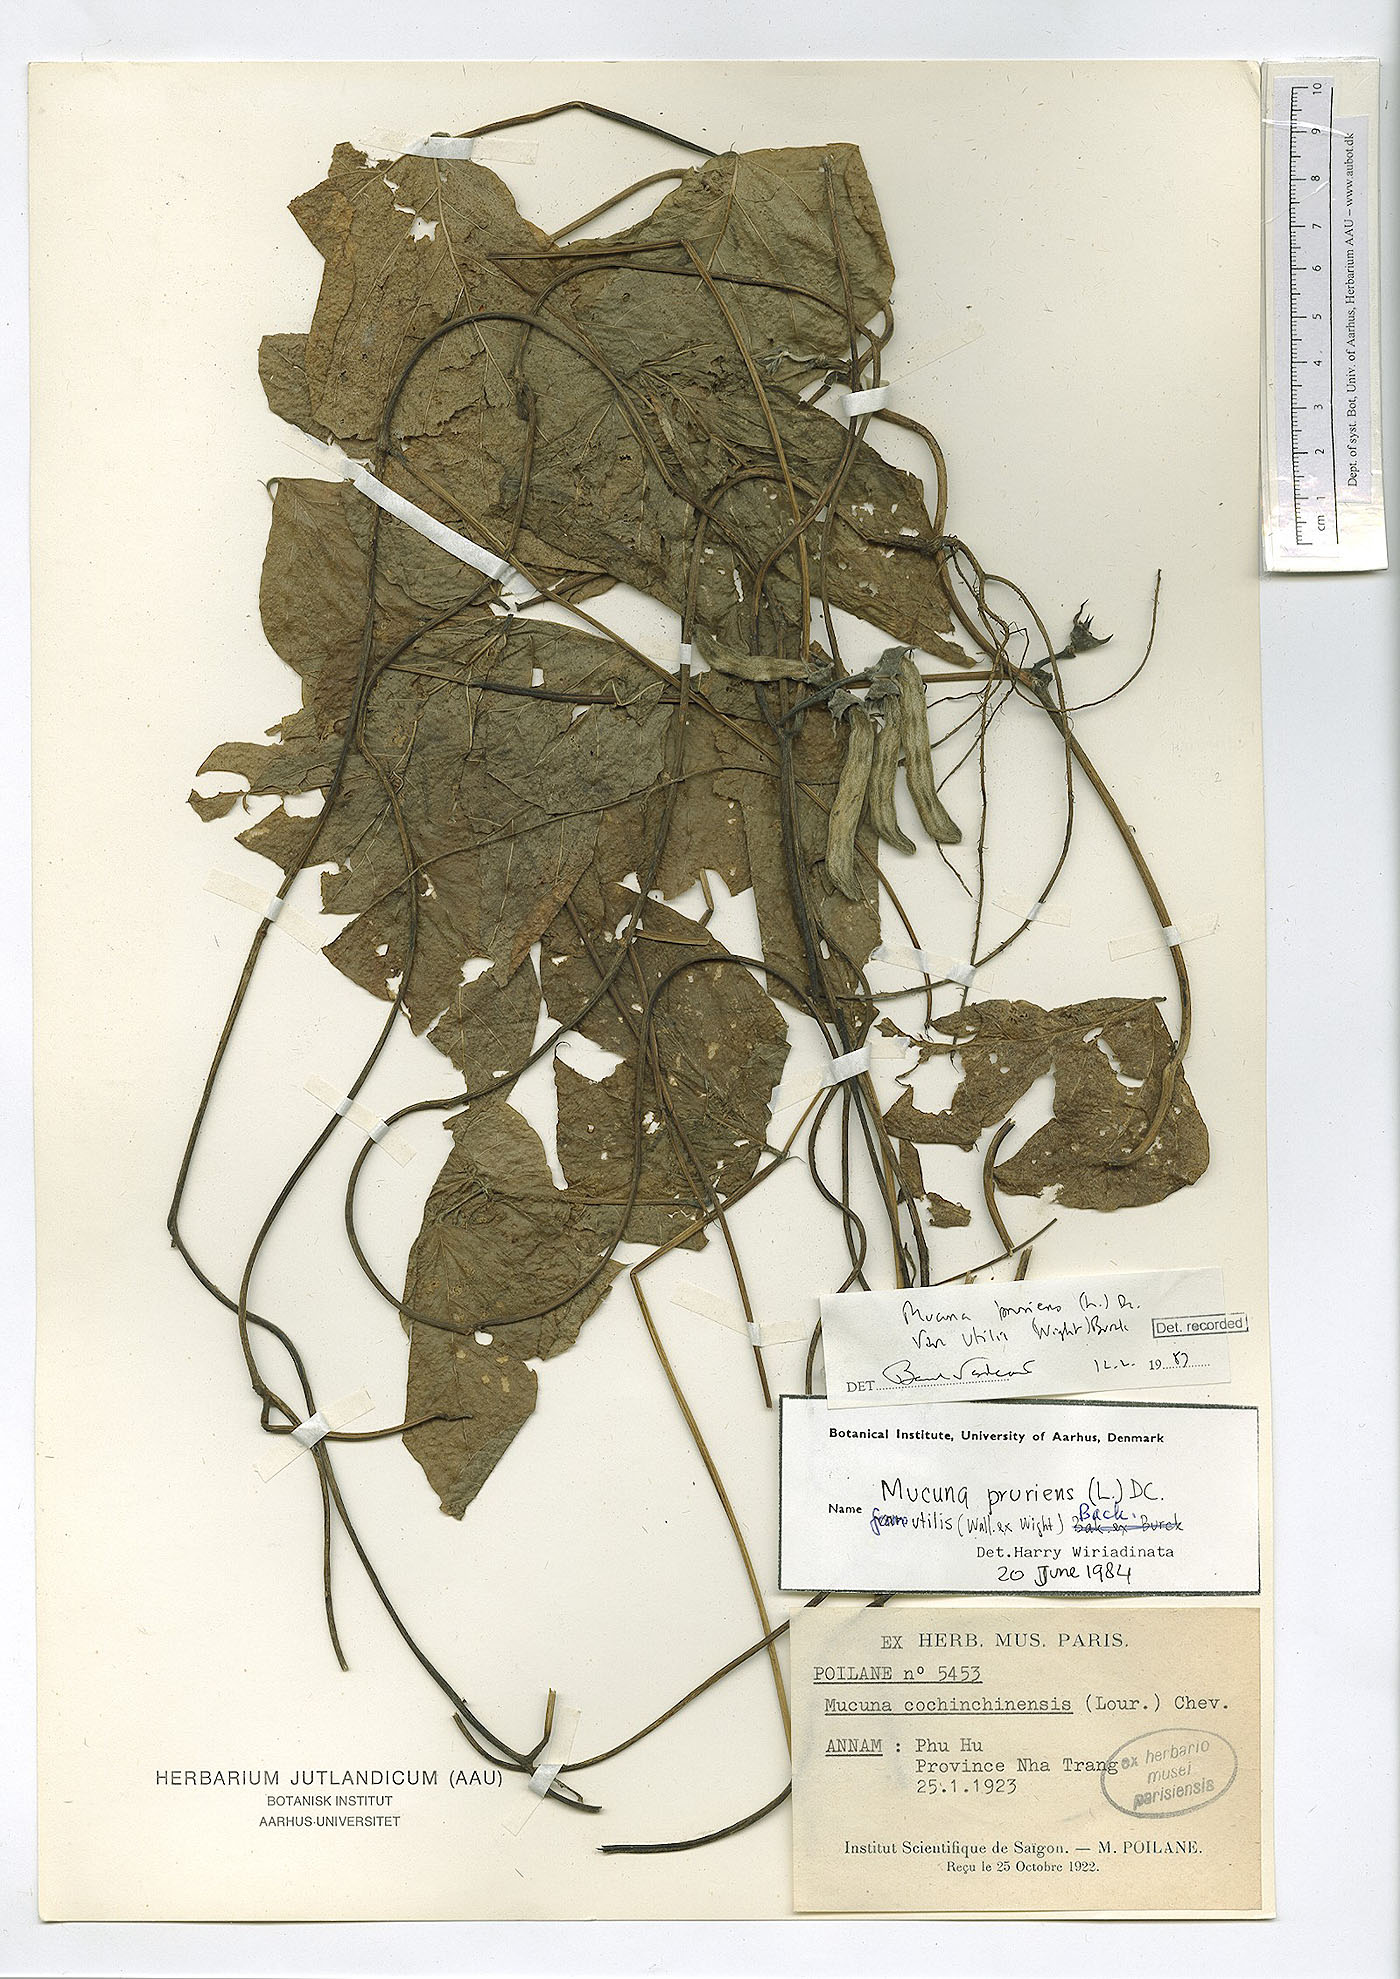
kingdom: Plantae
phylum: Tracheophyta
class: Magnoliopsida
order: Fabales
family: Fabaceae
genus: Mucuna
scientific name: Mucuna pruriens
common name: Cow-itch
